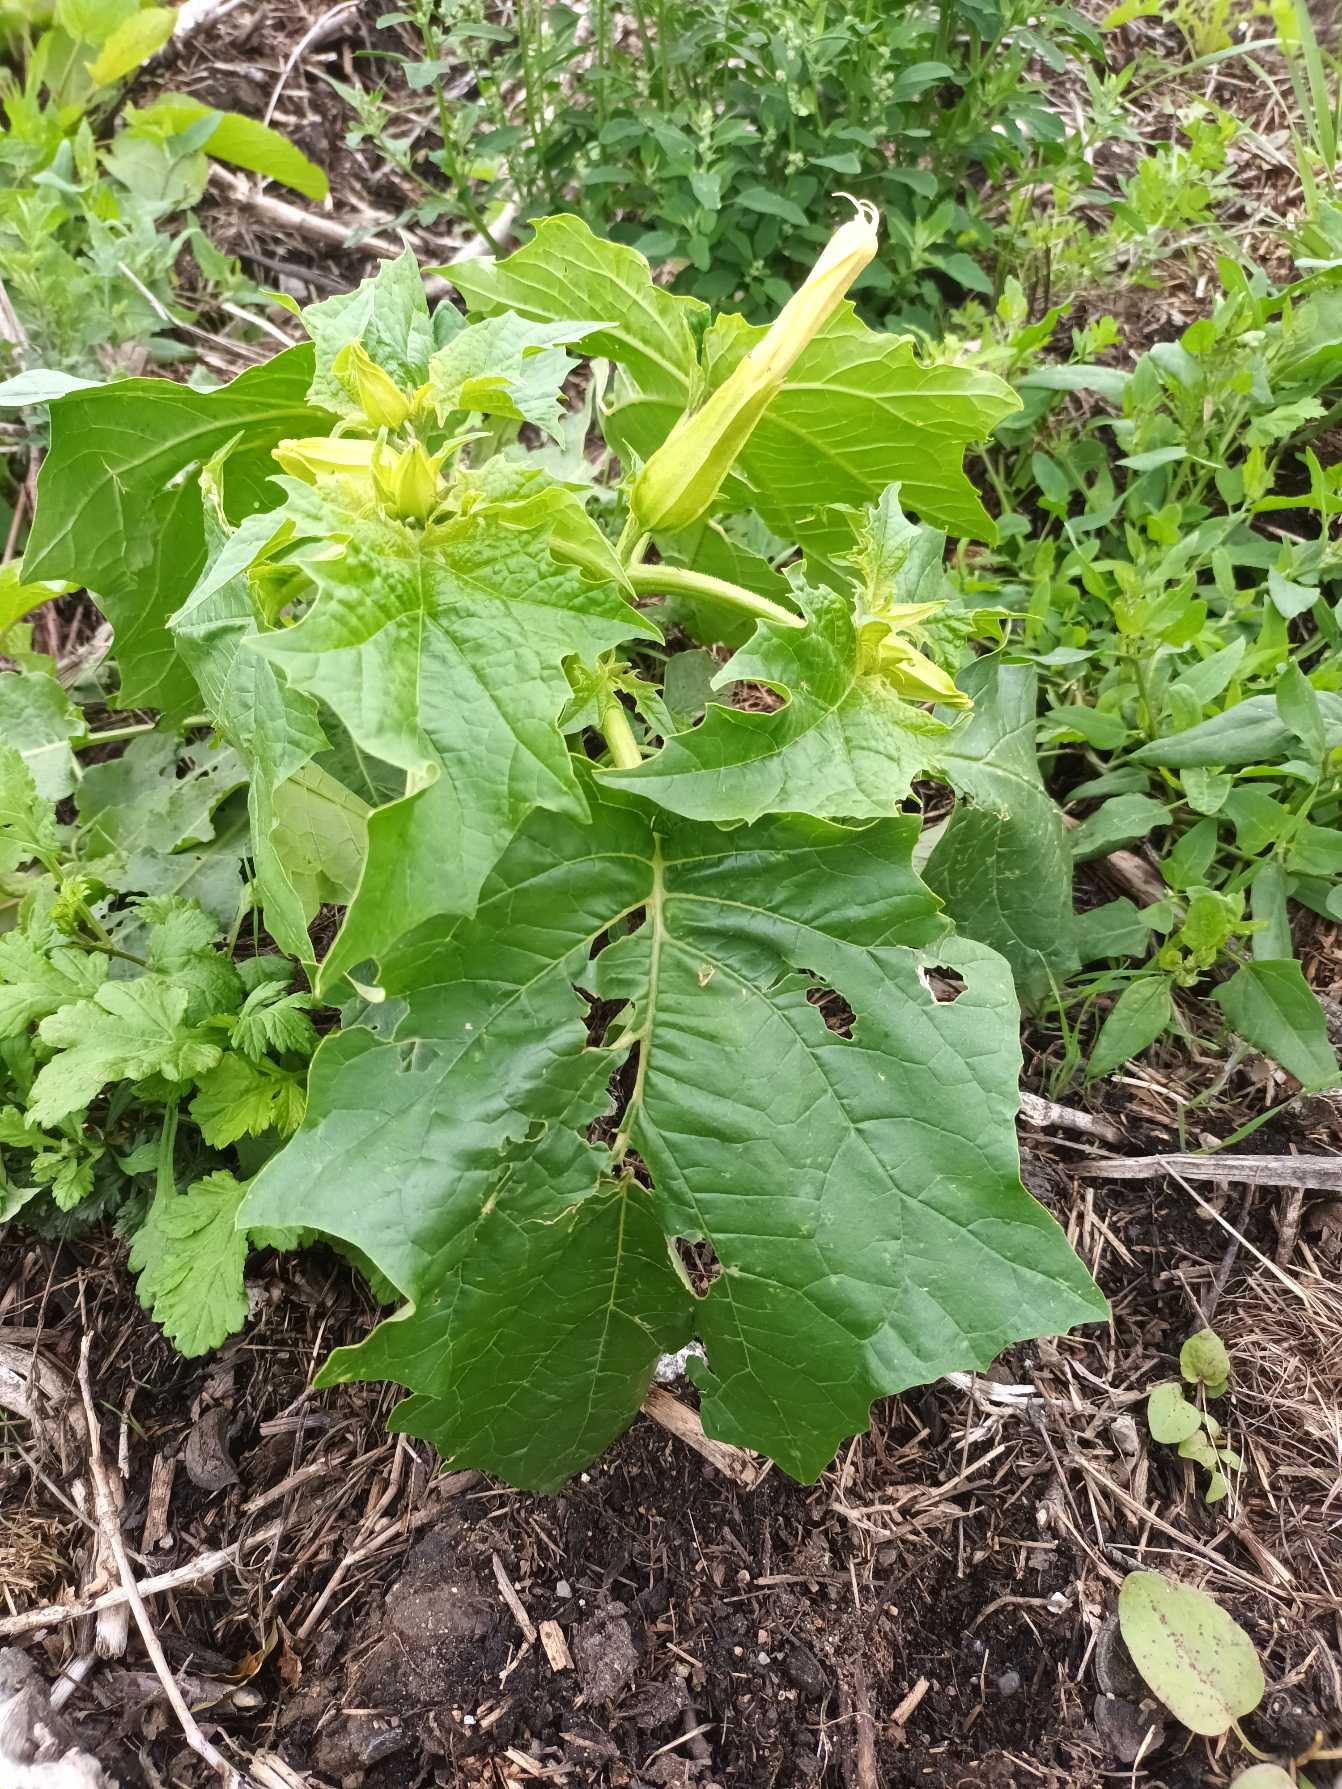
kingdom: Plantae
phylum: Tracheophyta
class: Magnoliopsida
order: Solanales
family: Solanaceae
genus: Datura
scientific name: Datura stramonium
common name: Pigæble
